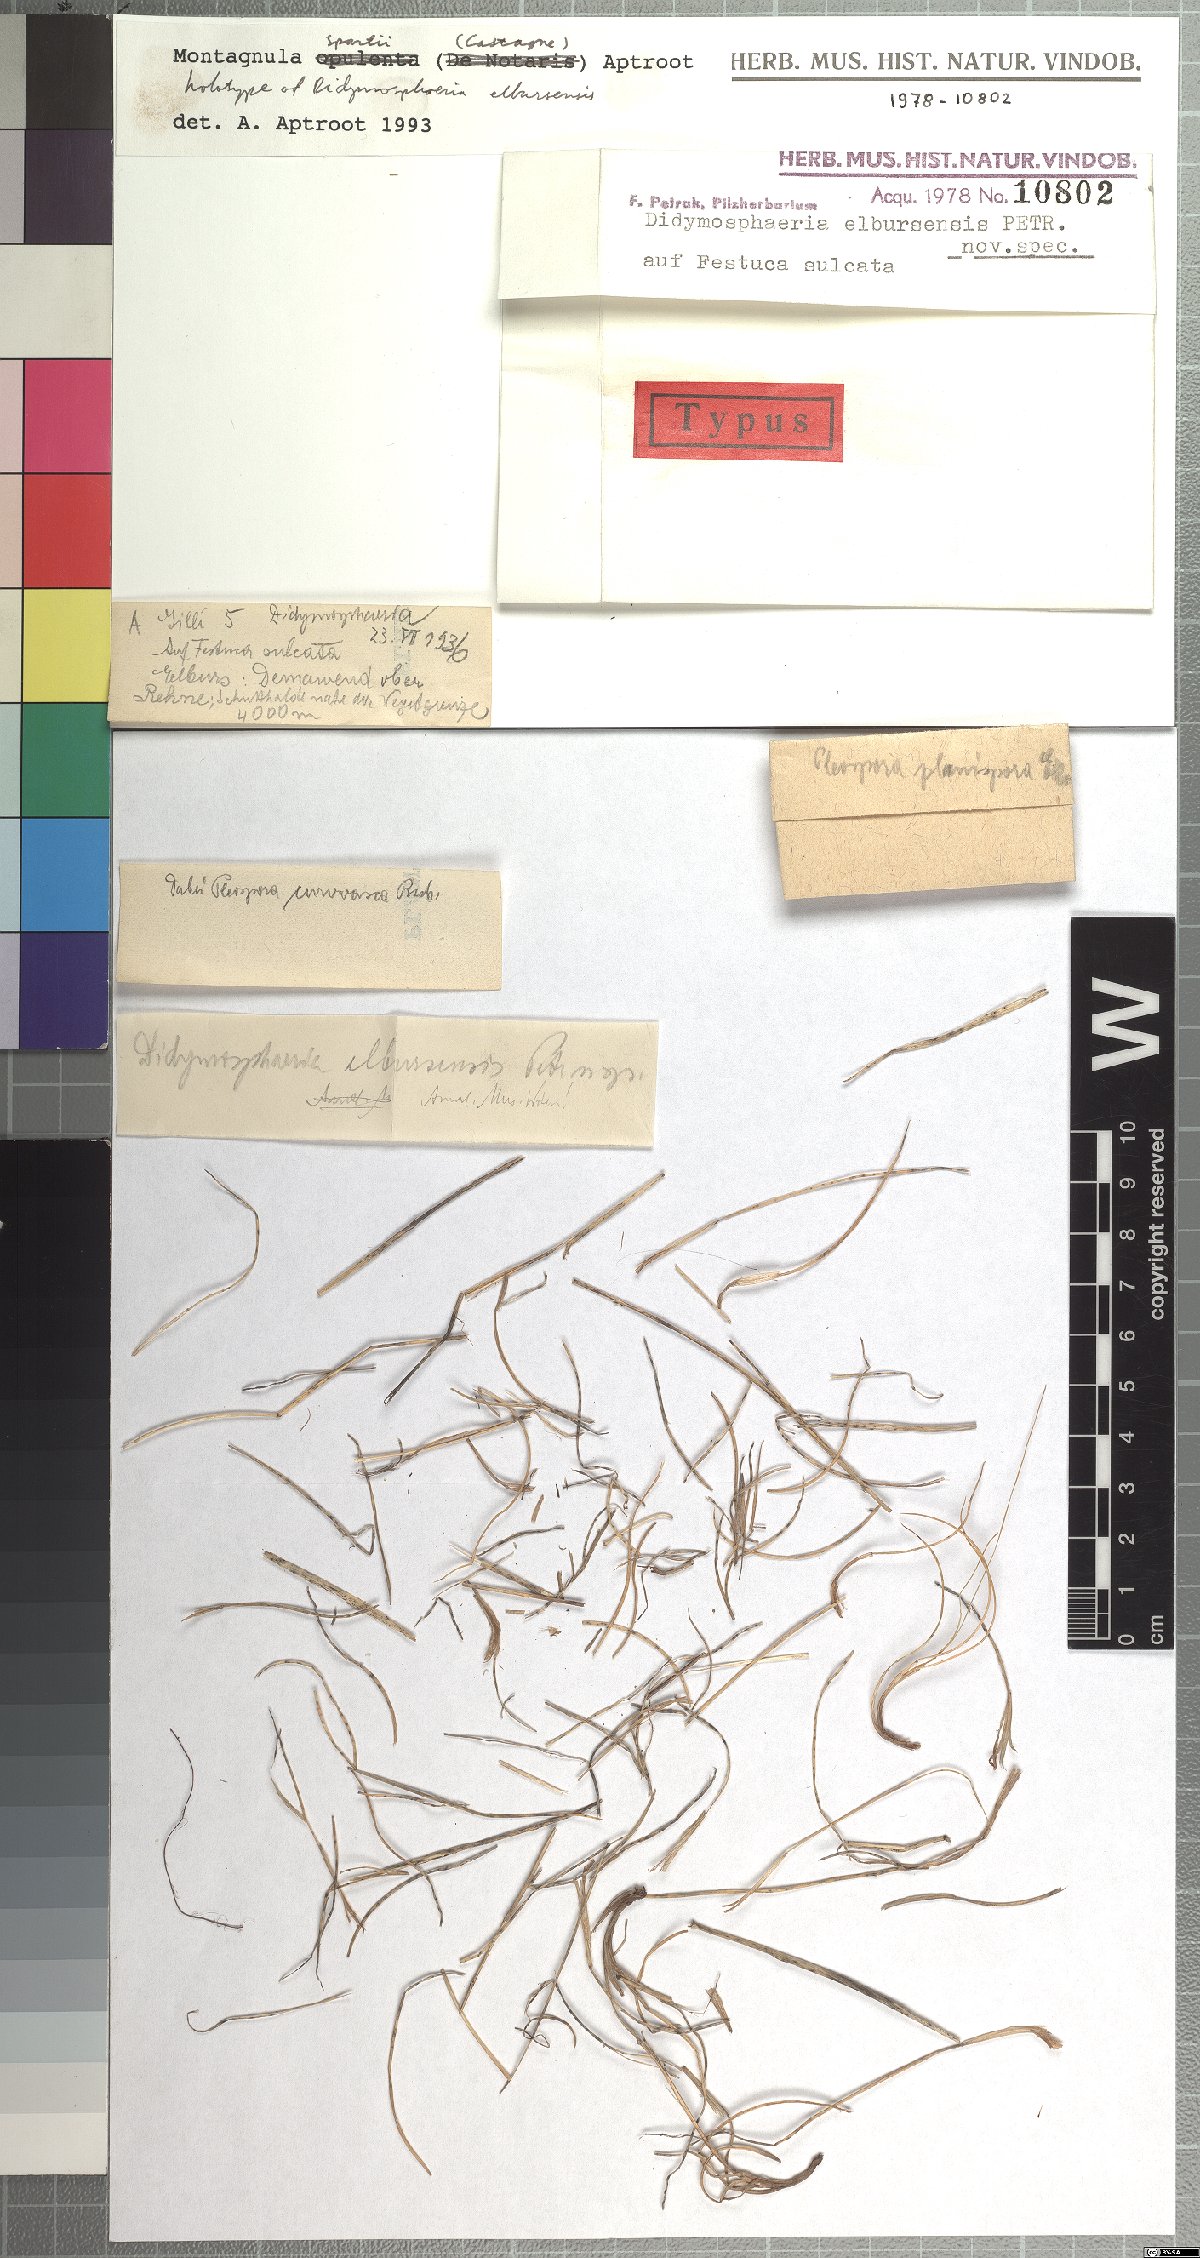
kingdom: Fungi
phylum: Ascomycota
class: Dothideomycetes
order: Pleosporales
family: Didymosphaeriaceae
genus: Didymosphaeria
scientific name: Didymosphaeria elbursensis
